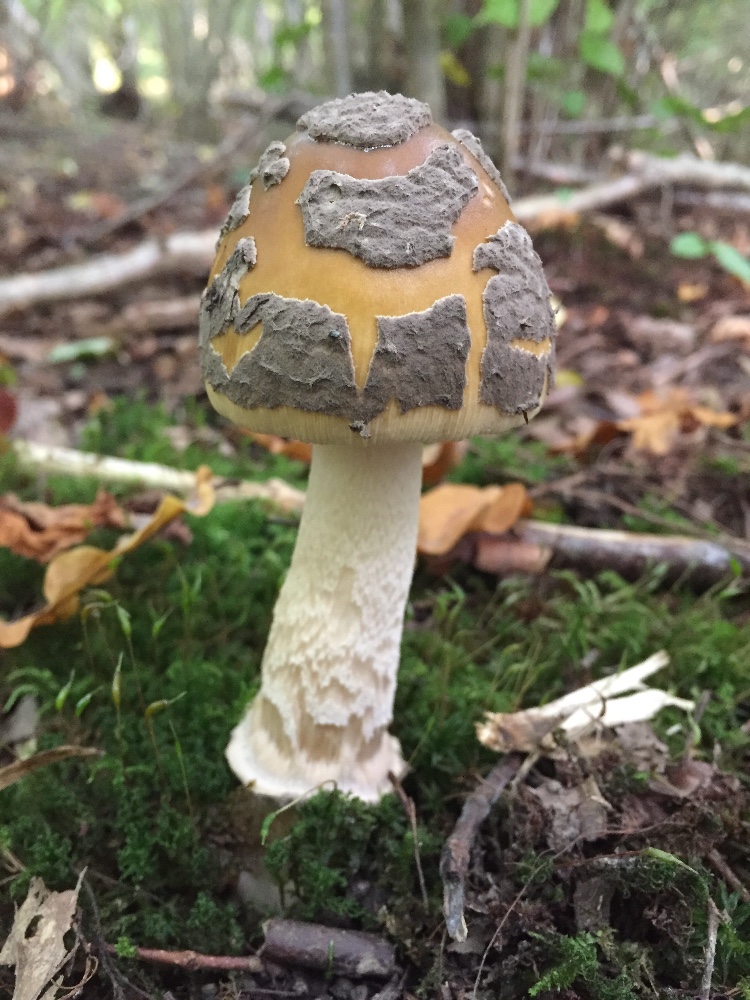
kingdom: Fungi
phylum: Basidiomycota
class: Agaricomycetes
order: Agaricales
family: Amanitaceae
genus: Amanita
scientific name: Amanita ceciliae
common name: stor kam-fluesvamp
